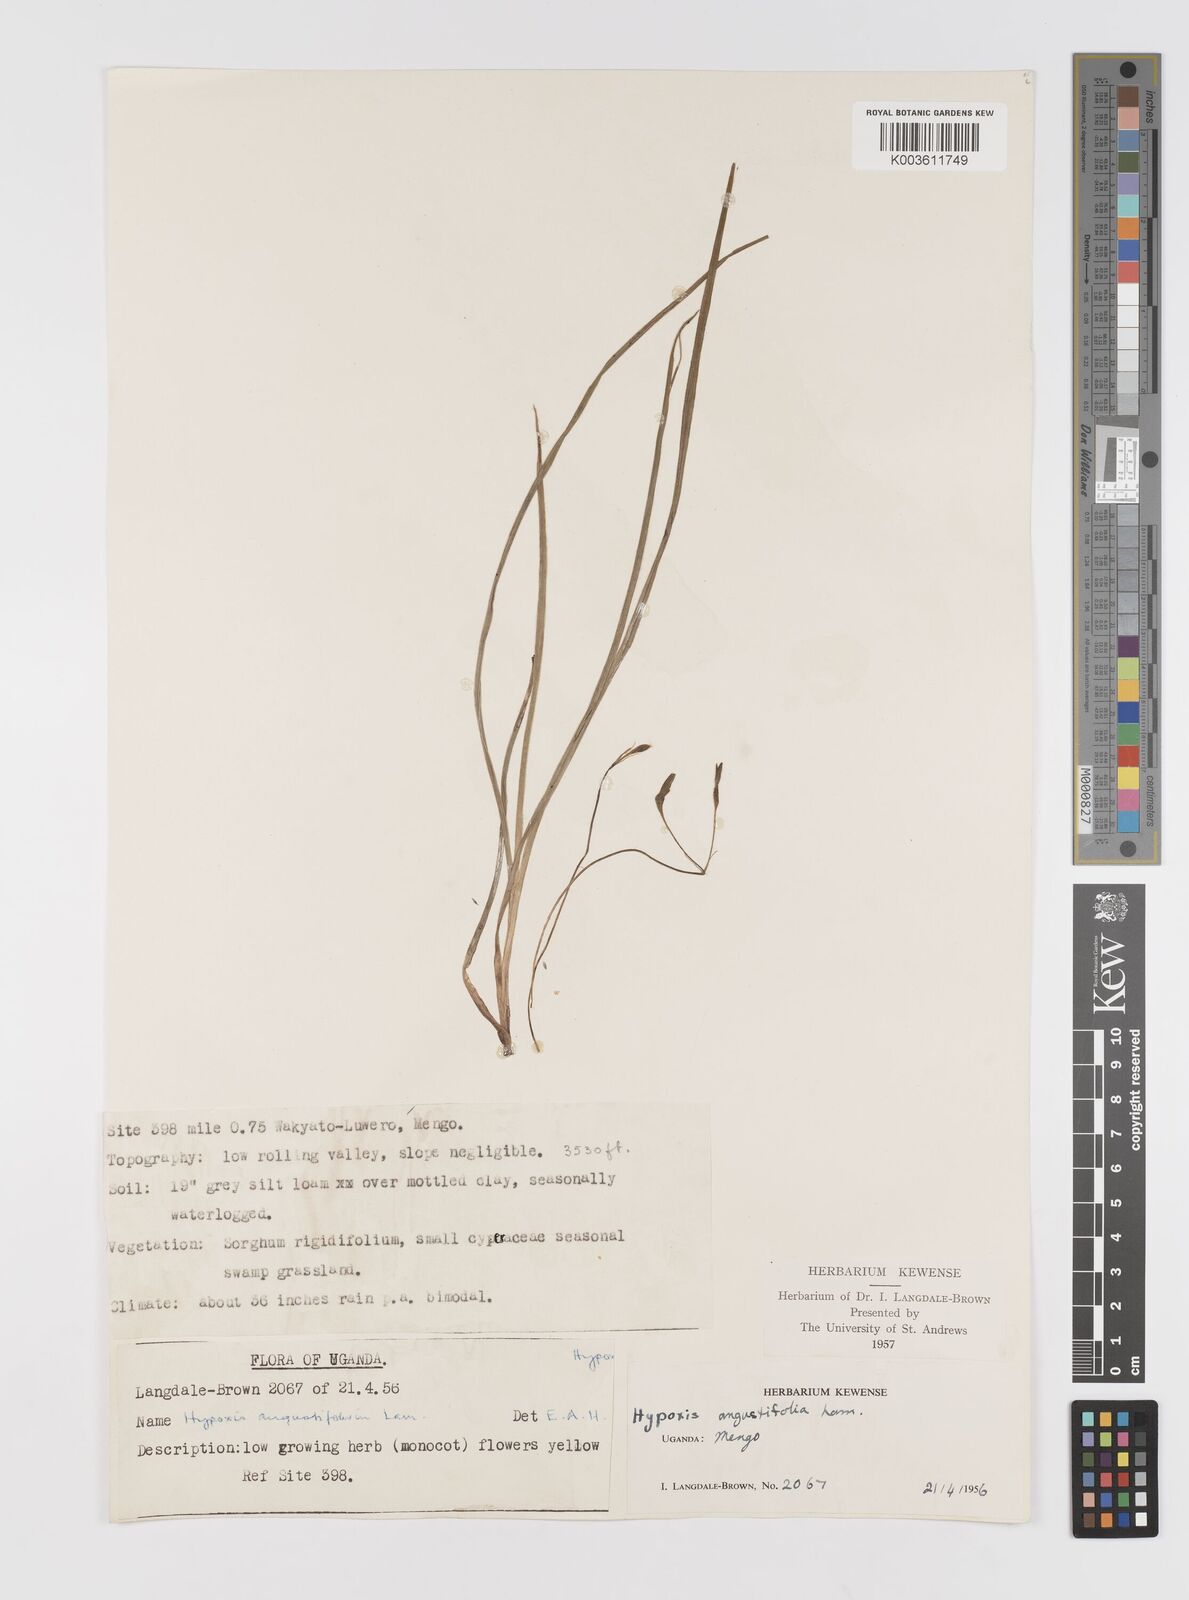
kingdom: Plantae
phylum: Tracheophyta
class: Liliopsida
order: Asparagales
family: Hypoxidaceae
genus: Hypoxis
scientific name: Hypoxis angustifolia
